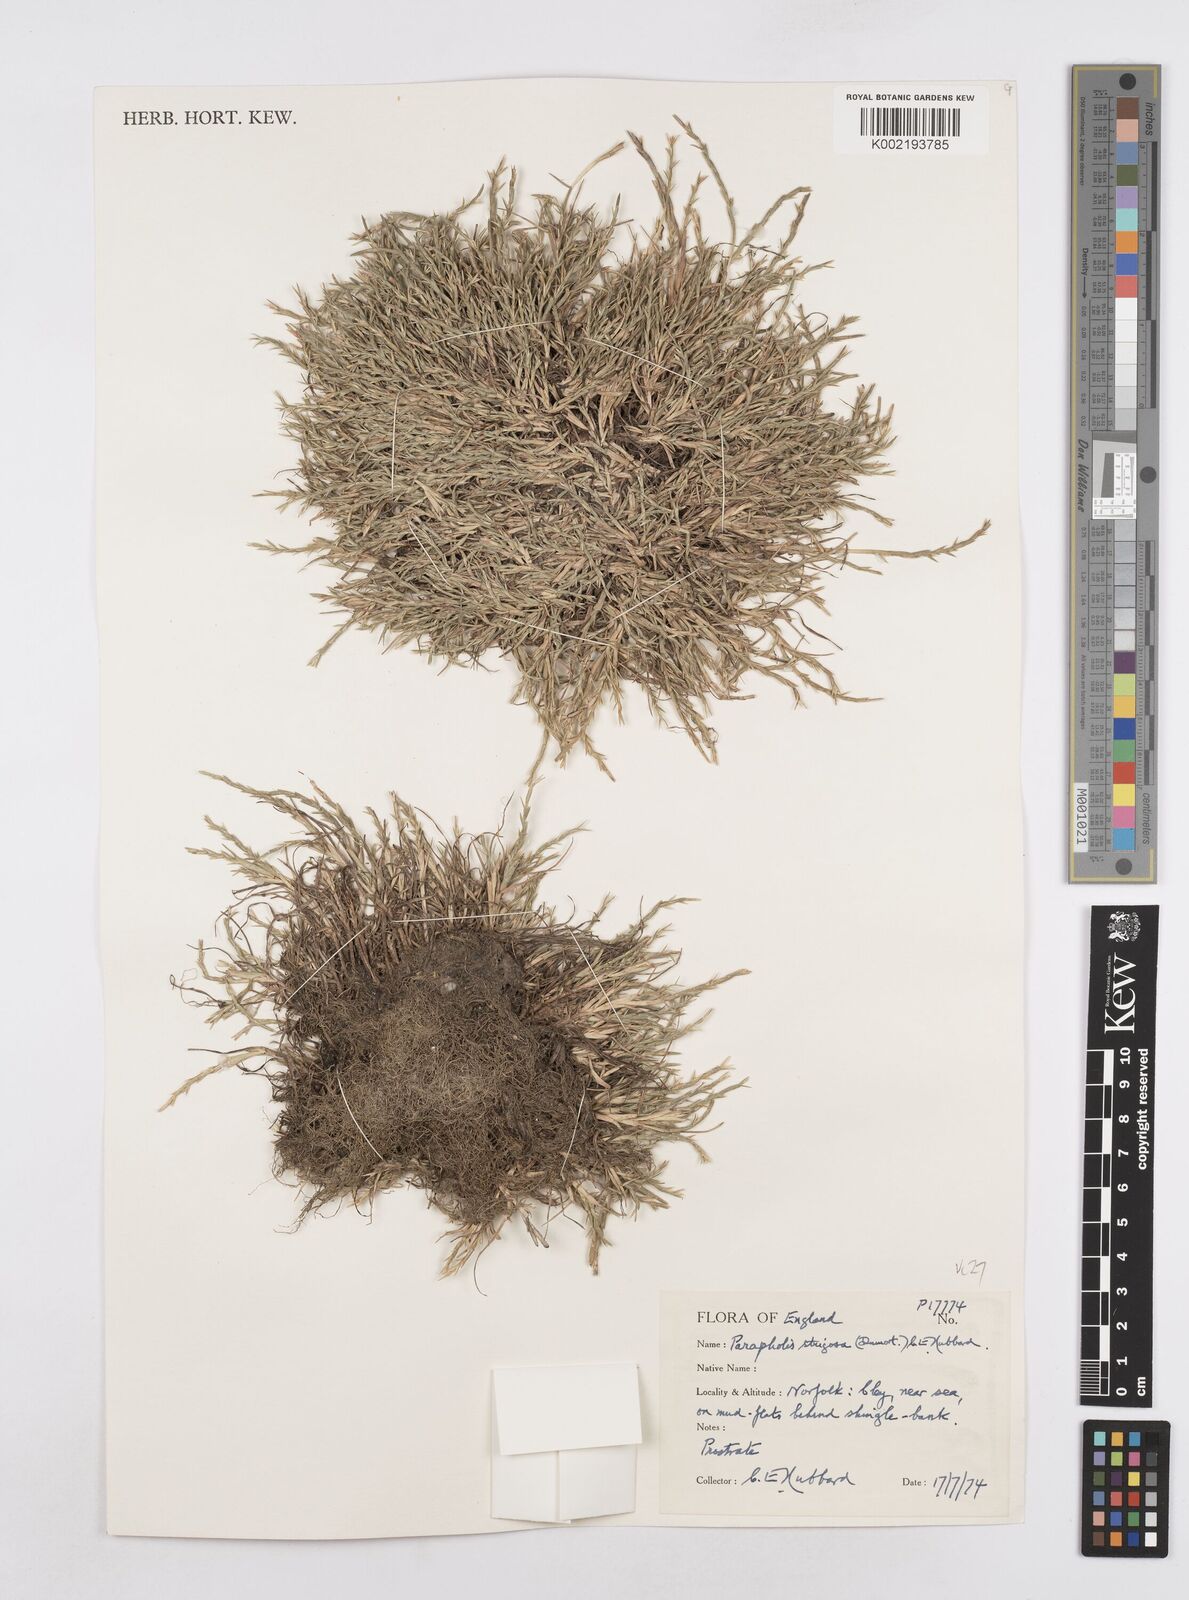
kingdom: Plantae
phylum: Tracheophyta
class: Liliopsida
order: Poales
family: Poaceae
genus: Parapholis
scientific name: Parapholis strigosa
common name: Hard-grass
